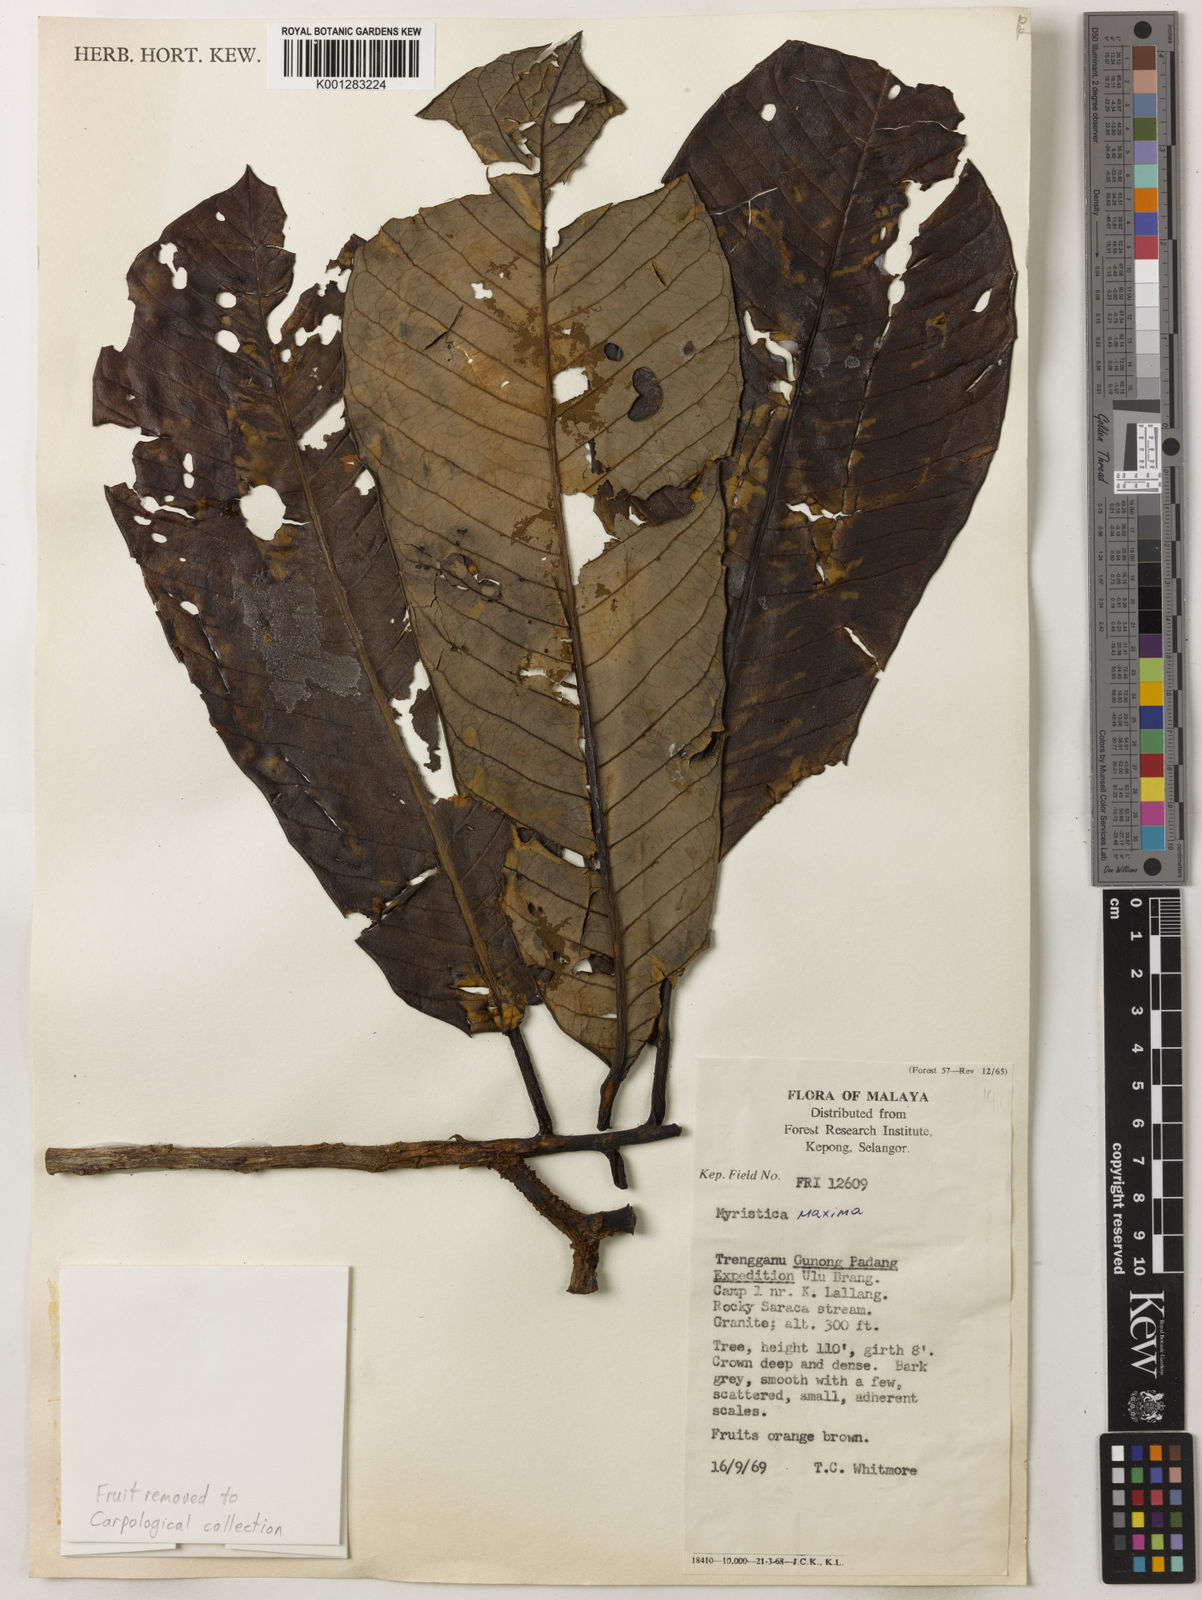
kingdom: Plantae
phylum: Tracheophyta
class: Magnoliopsida
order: Magnoliales
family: Myristicaceae
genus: Myristica
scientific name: Myristica maxima
